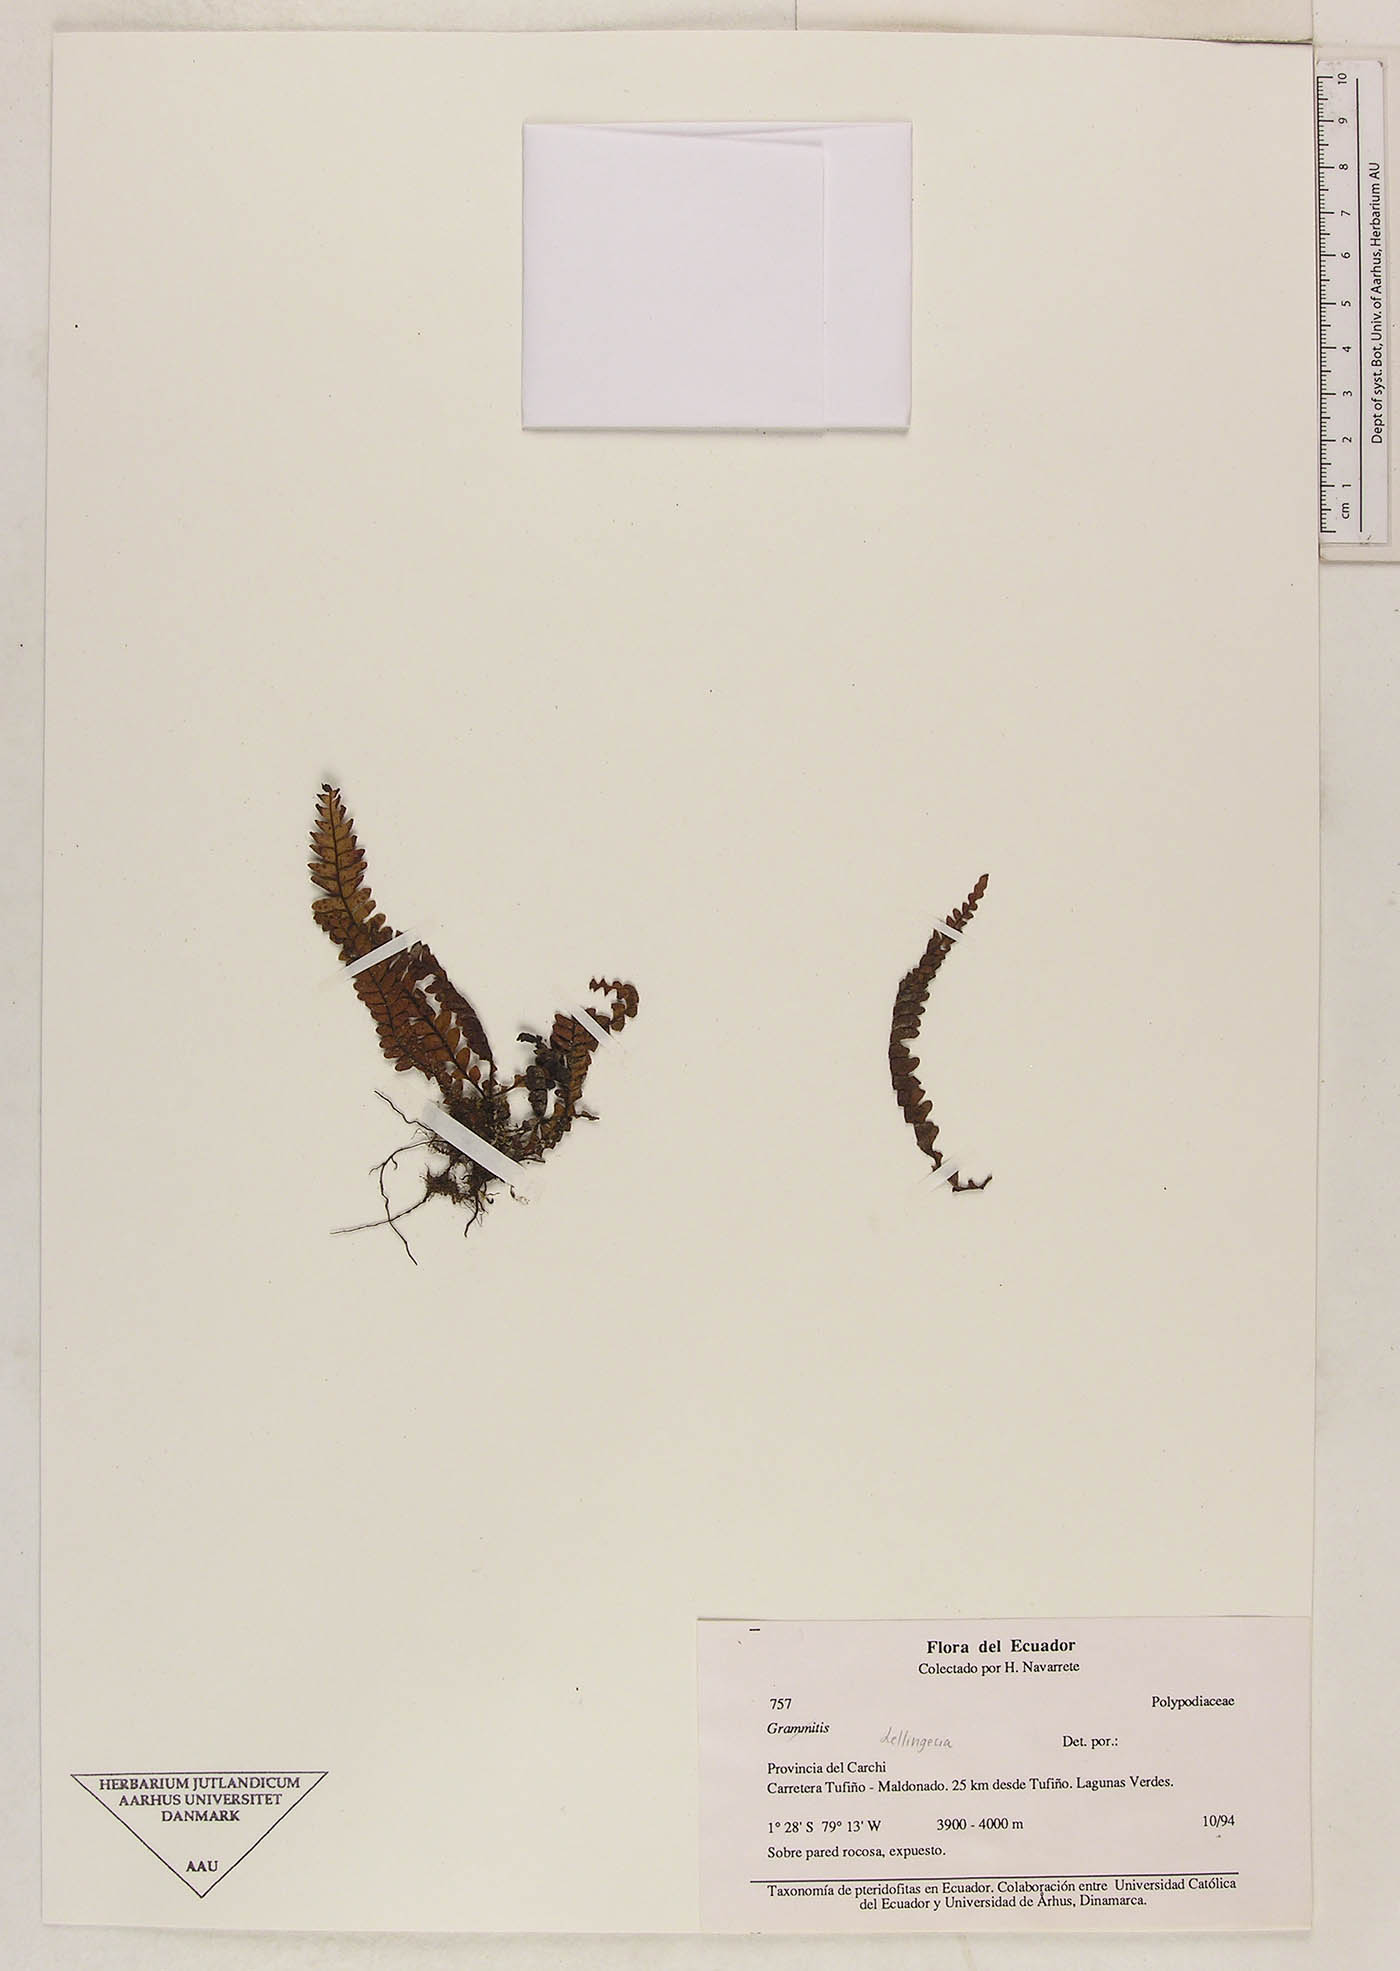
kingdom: Plantae
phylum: Tracheophyta
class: Polypodiopsida
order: Polypodiales
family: Polypodiaceae
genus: Lellingeria
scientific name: Lellingeria paramicola
